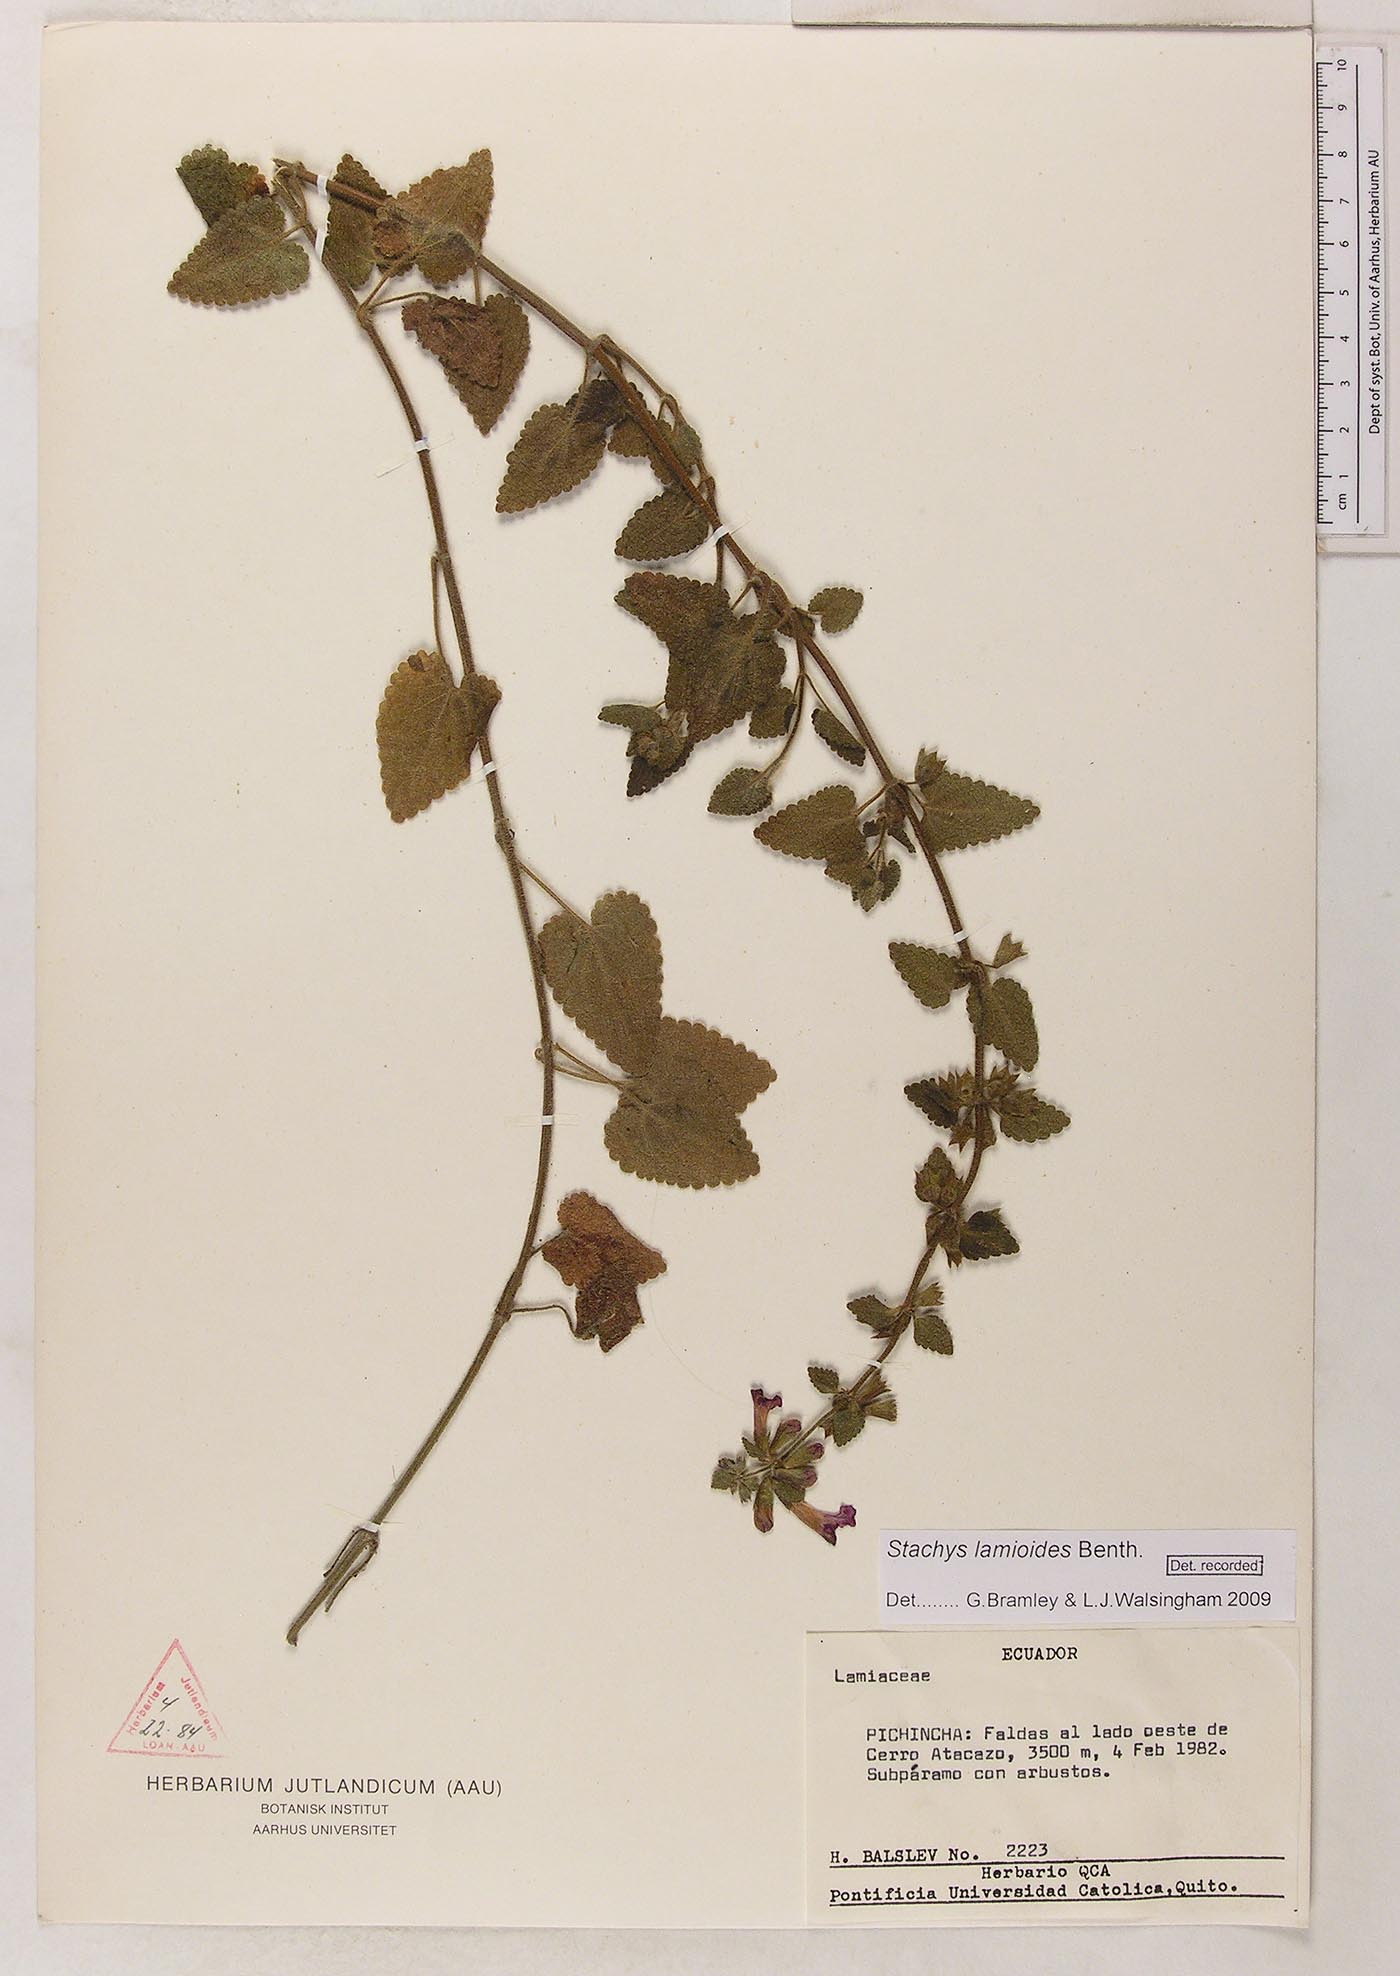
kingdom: Plantae
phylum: Tracheophyta
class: Magnoliopsida
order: Lamiales
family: Lamiaceae
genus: Stachys
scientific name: Stachys lamioides
